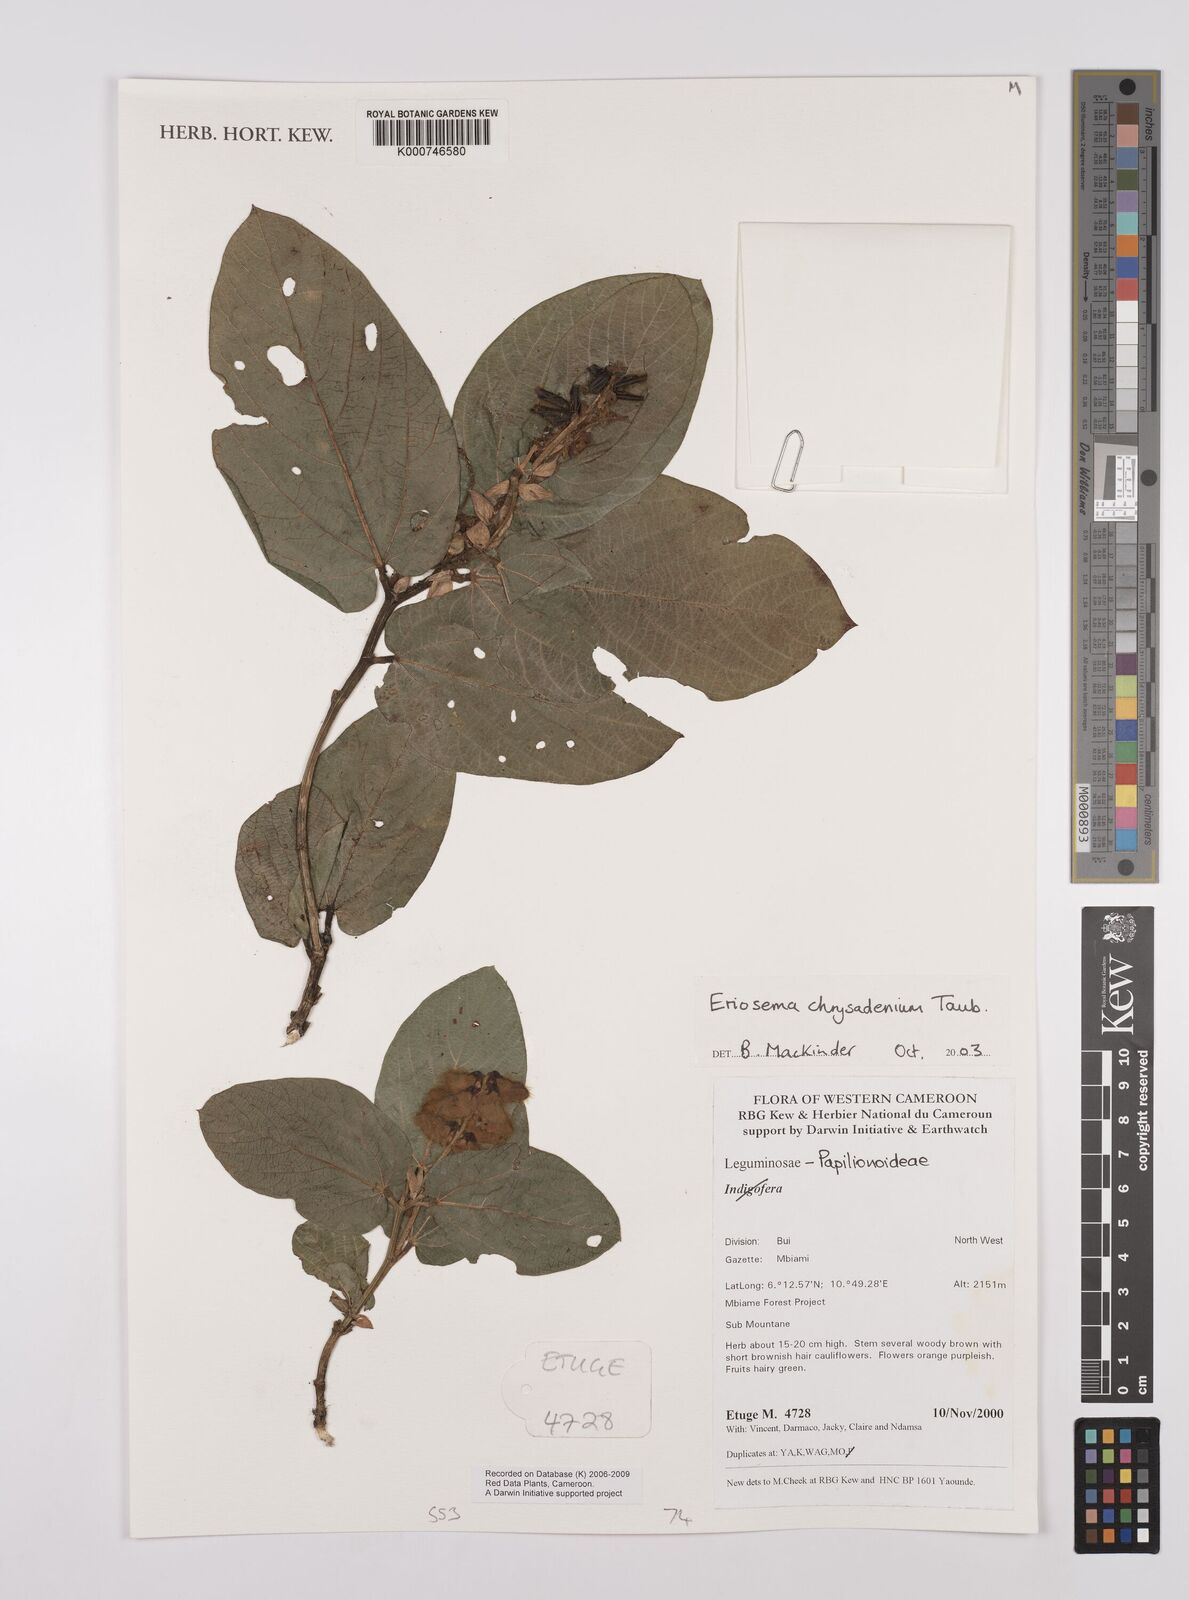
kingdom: Plantae
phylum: Tracheophyta
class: Magnoliopsida
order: Fabales
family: Fabaceae
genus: Eriosema
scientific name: Eriosema chrysadenium
